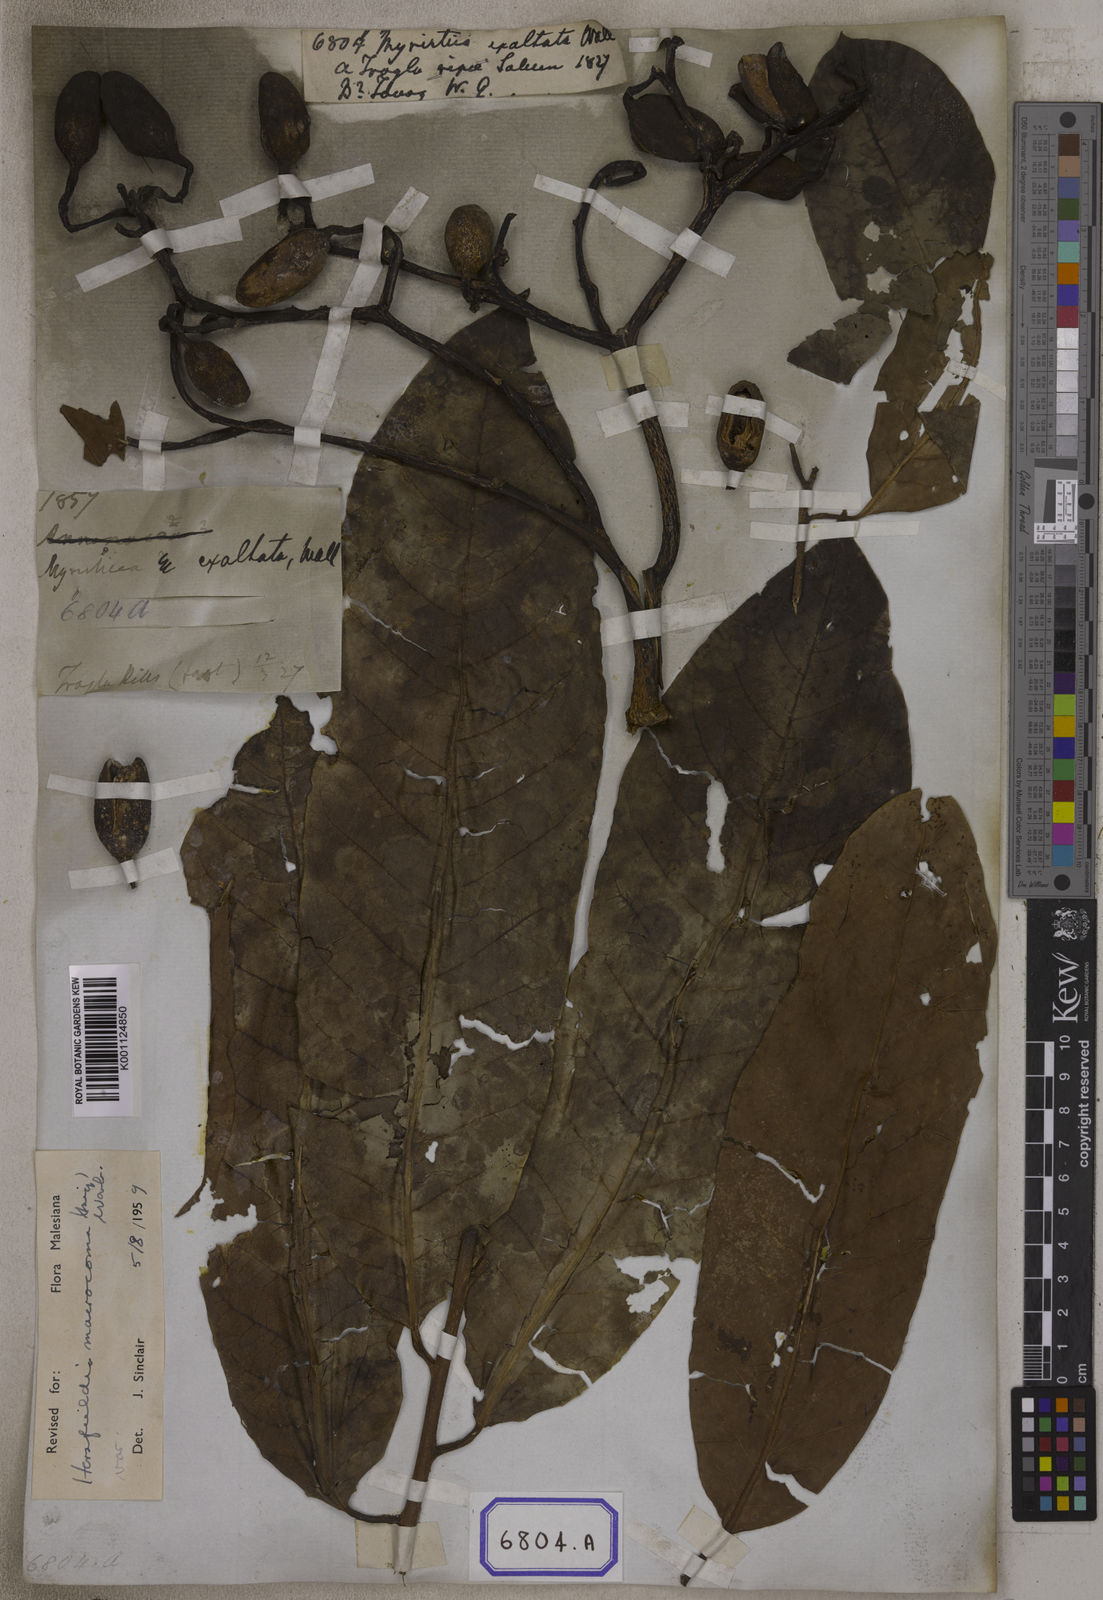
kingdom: Plantae
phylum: Tracheophyta
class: Magnoliopsida
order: Magnoliales
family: Myristicaceae
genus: Myristica
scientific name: Myristica
